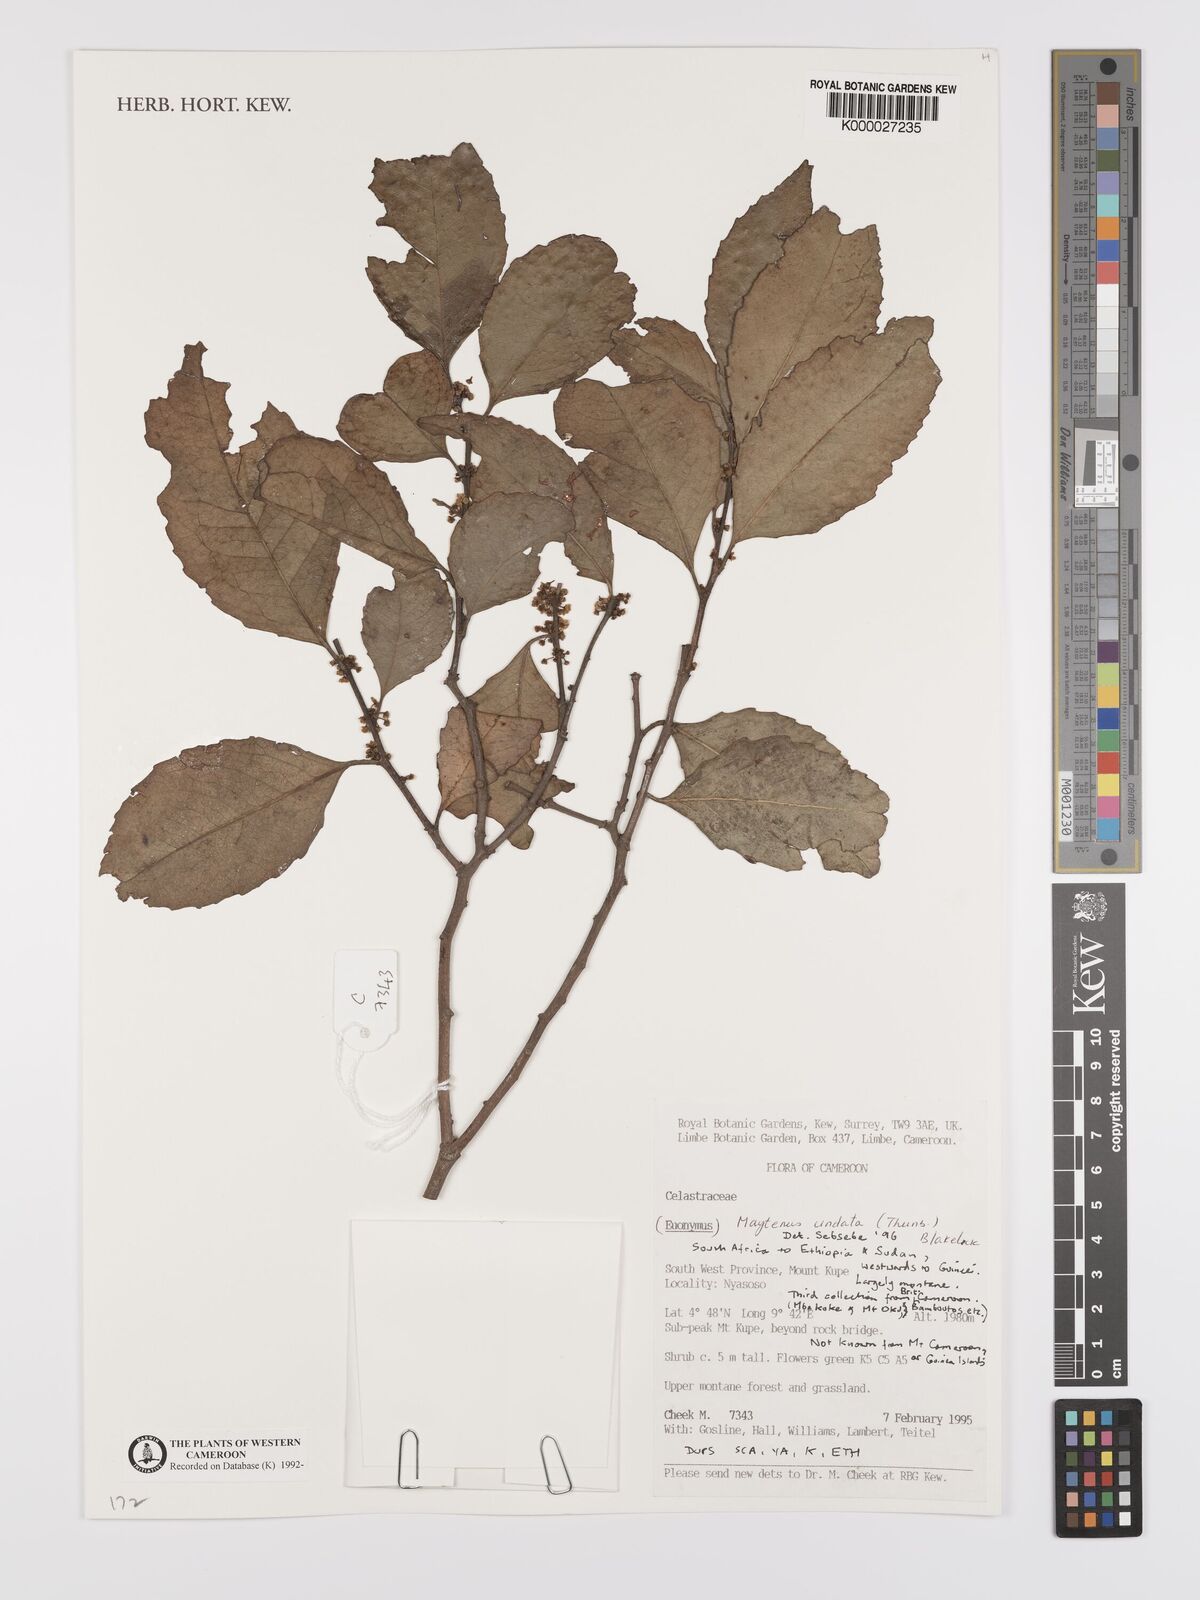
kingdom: Plantae
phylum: Tracheophyta
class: Magnoliopsida
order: Celastrales
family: Celastraceae
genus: Gymnosporia
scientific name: Gymnosporia undata
